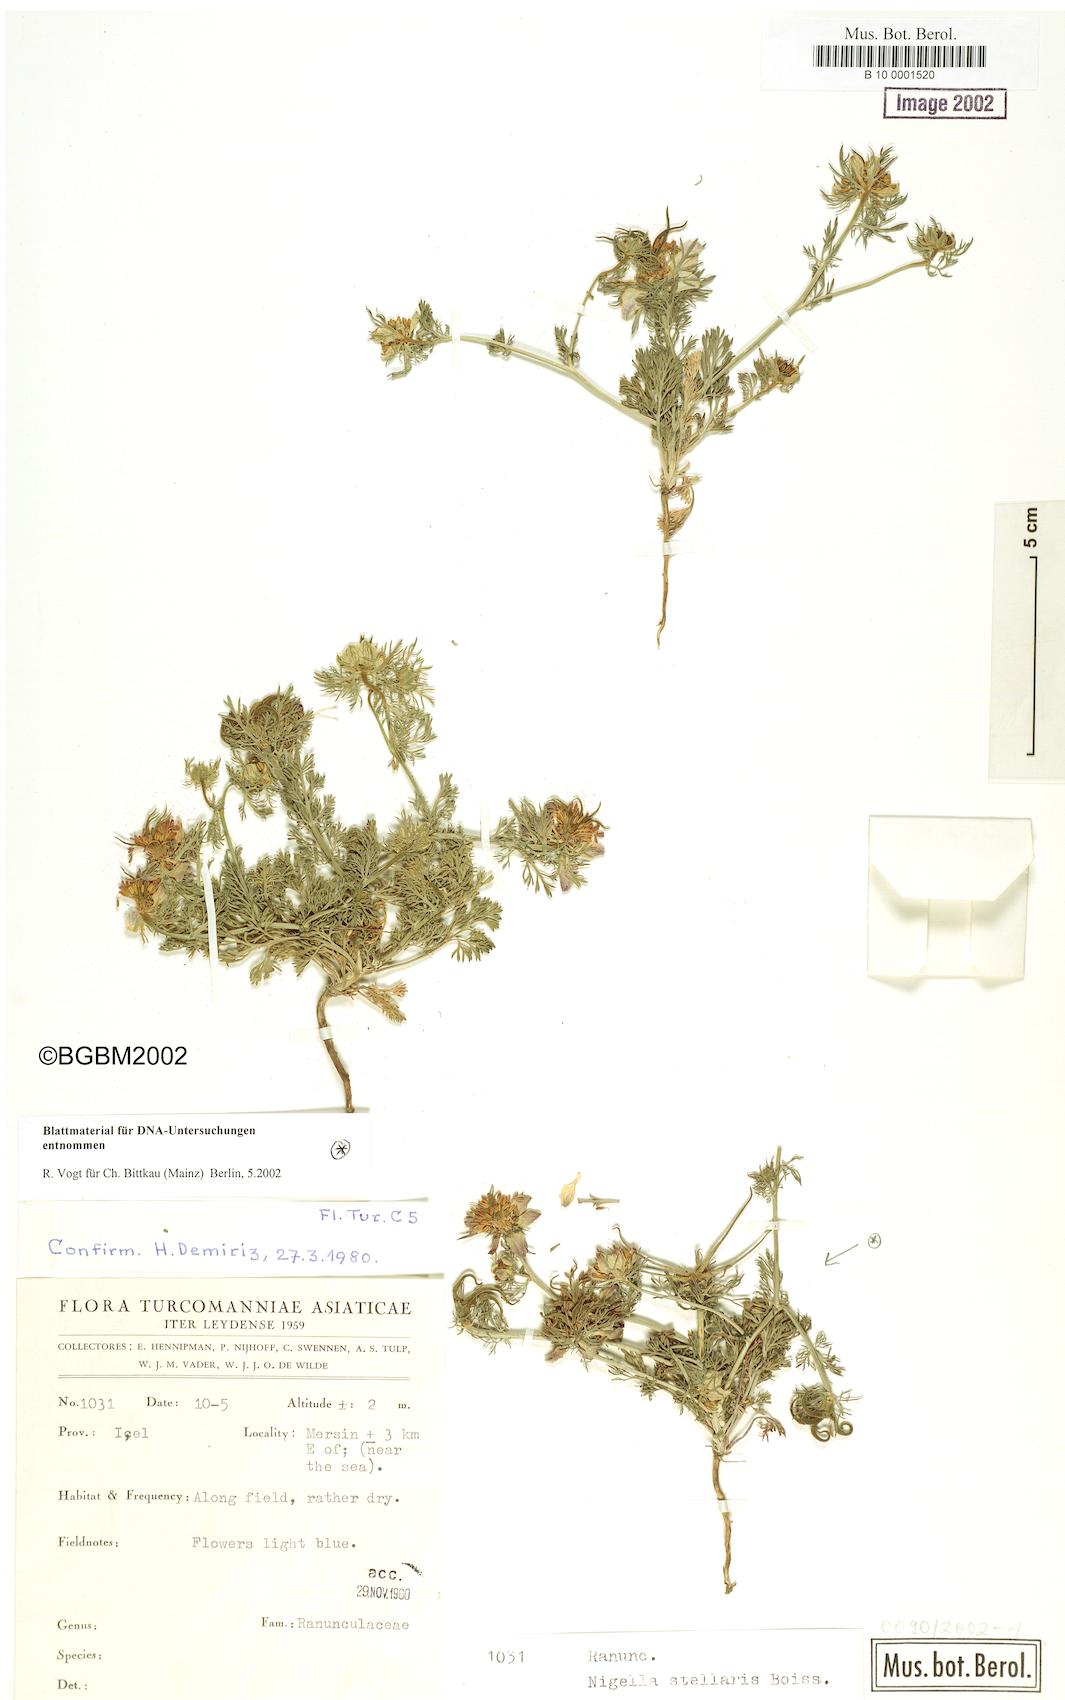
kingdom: Plantae
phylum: Tracheophyta
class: Magnoliopsida
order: Ranunculales
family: Ranunculaceae
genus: Nigella
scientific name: Nigella stellaris
